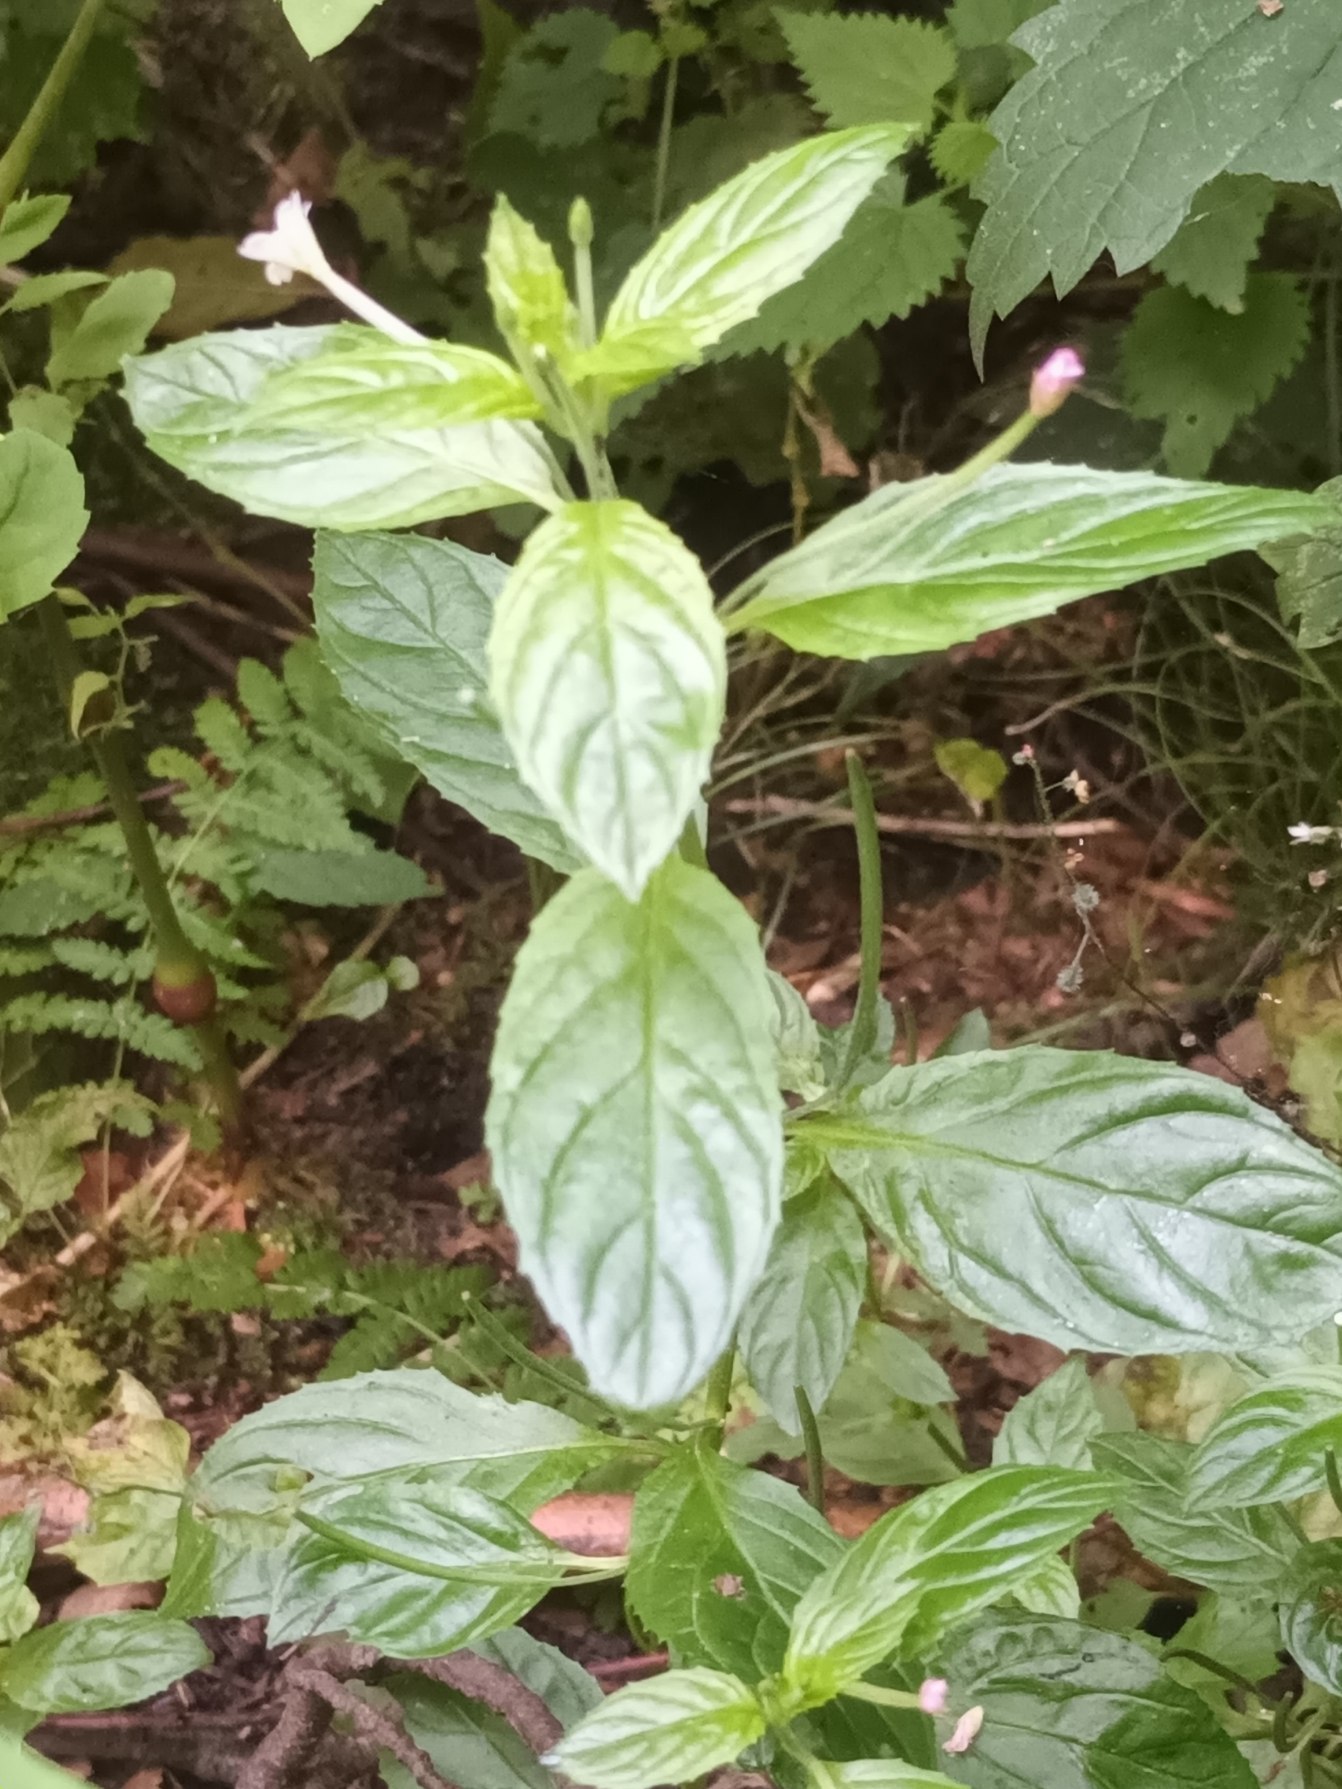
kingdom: Plantae
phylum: Tracheophyta
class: Magnoliopsida
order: Myrtales
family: Onagraceae
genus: Epilobium
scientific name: Epilobium roseum
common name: Rosen-dueurt
